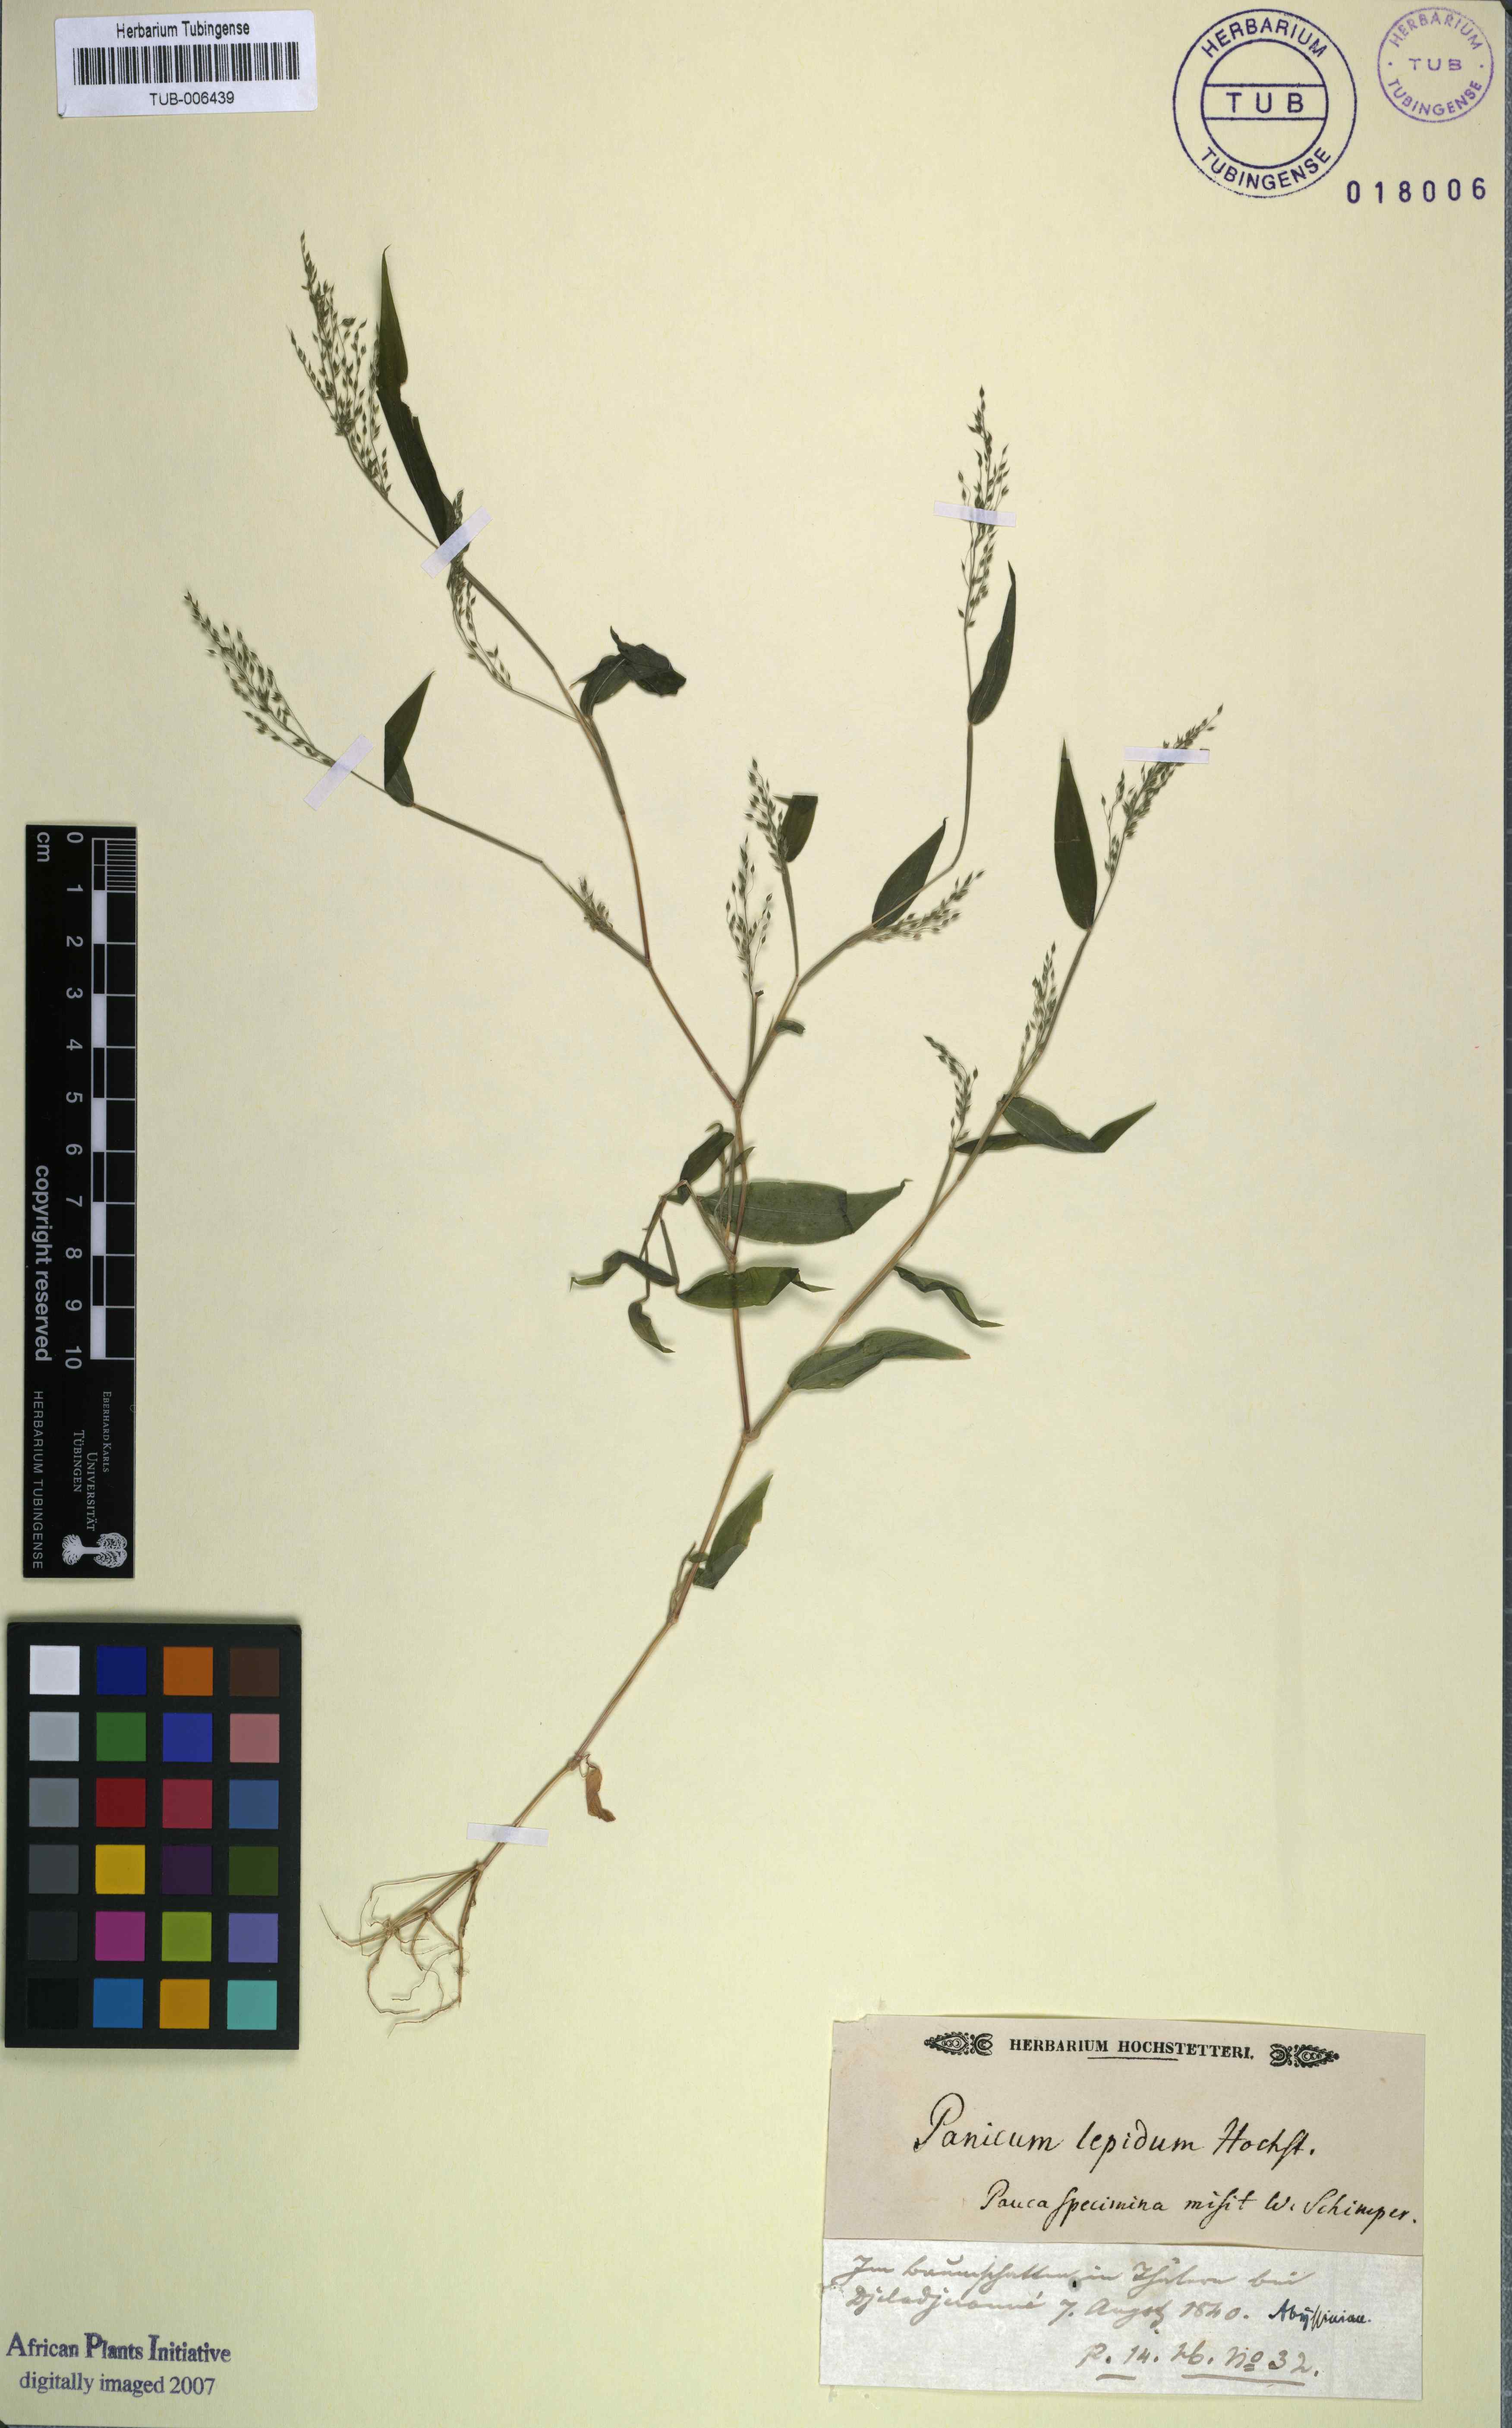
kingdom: Plantae
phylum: Tracheophyta
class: Liliopsida
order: Poales
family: Poaceae
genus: Panicum
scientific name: Panicum delicatulum
